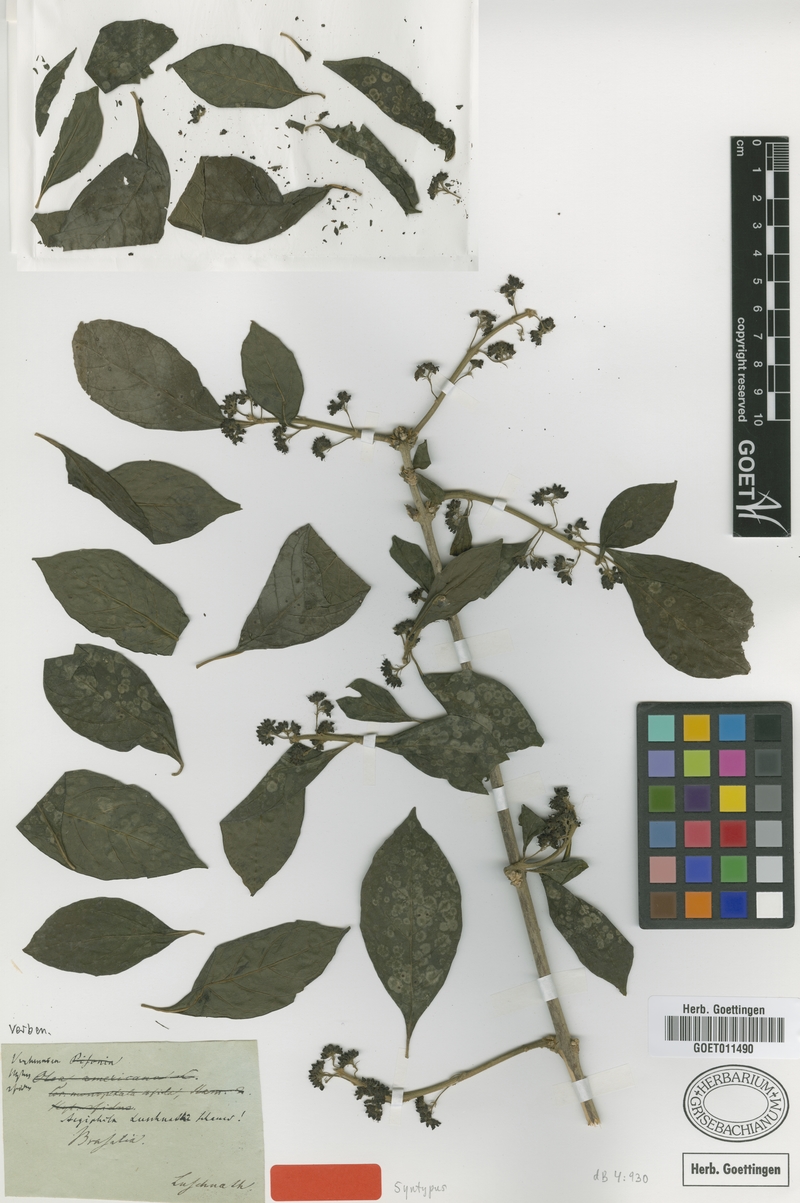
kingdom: Plantae
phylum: Tracheophyta
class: Magnoliopsida
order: Lamiales
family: Lamiaceae
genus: Aegiphila
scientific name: Aegiphila luschnathii
